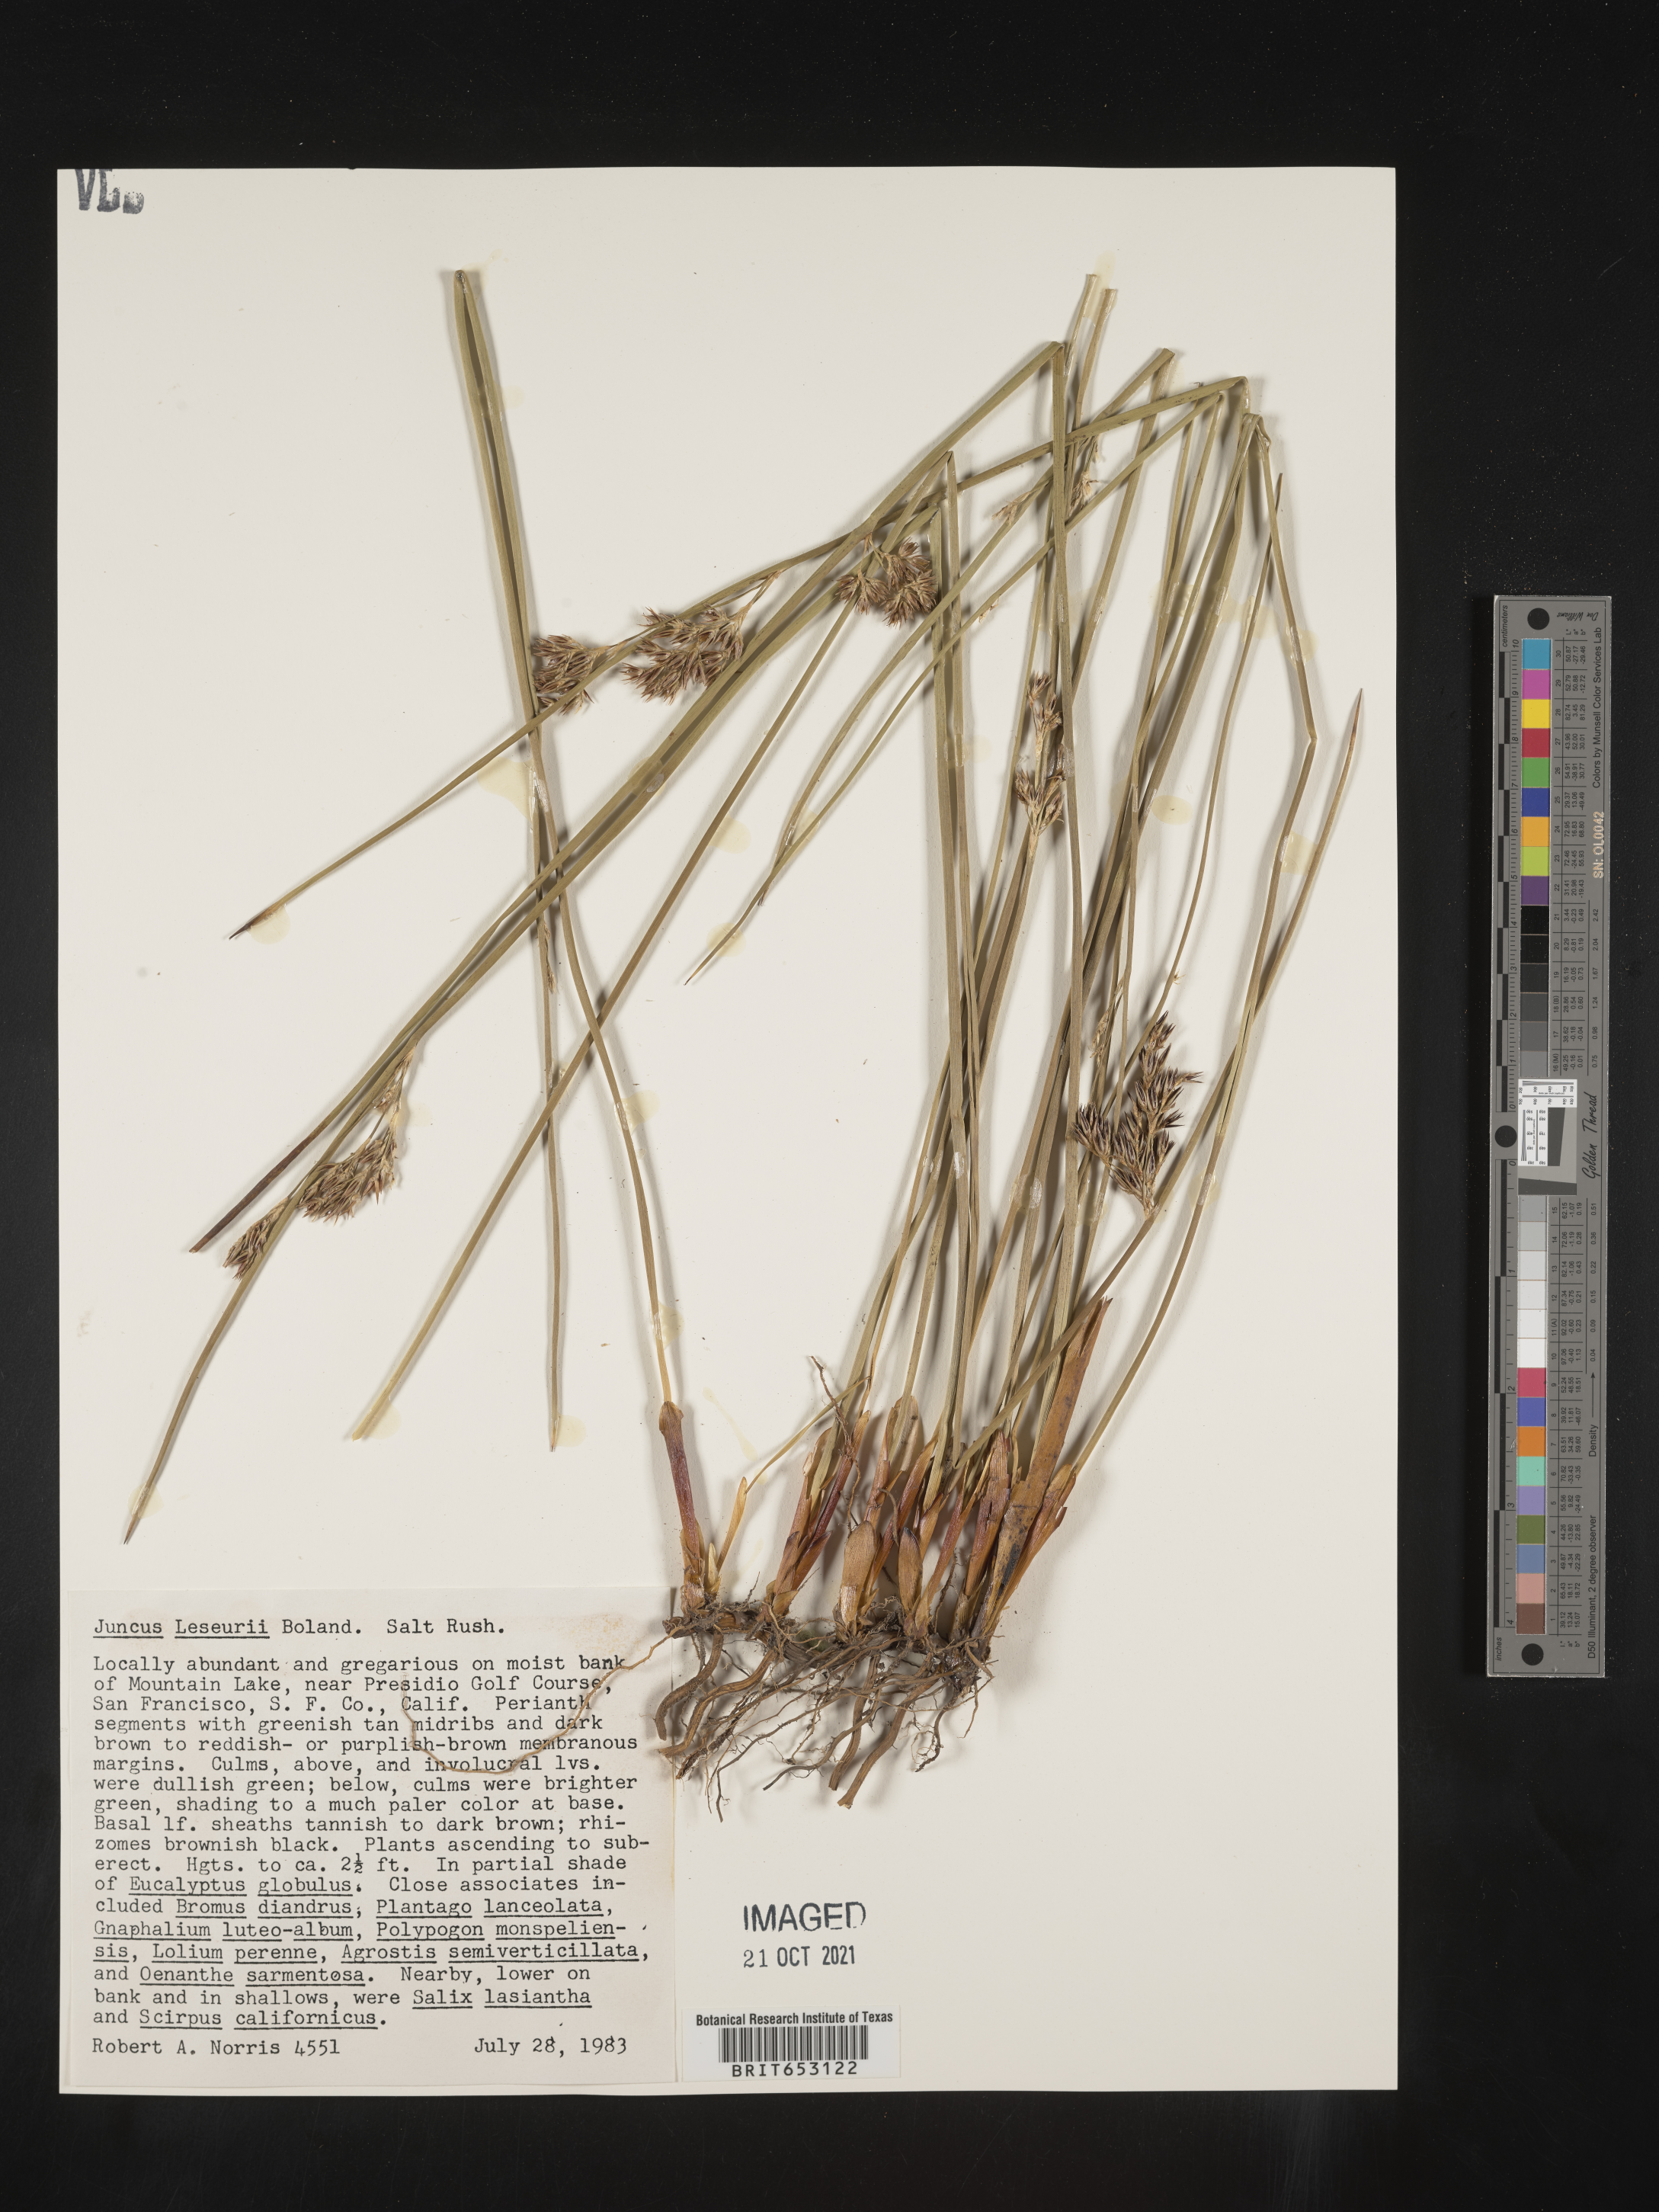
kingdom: Plantae
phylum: Tracheophyta
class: Liliopsida
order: Poales
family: Juncaceae
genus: Juncus
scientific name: Juncus lesueurii
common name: Lesueur's rush
